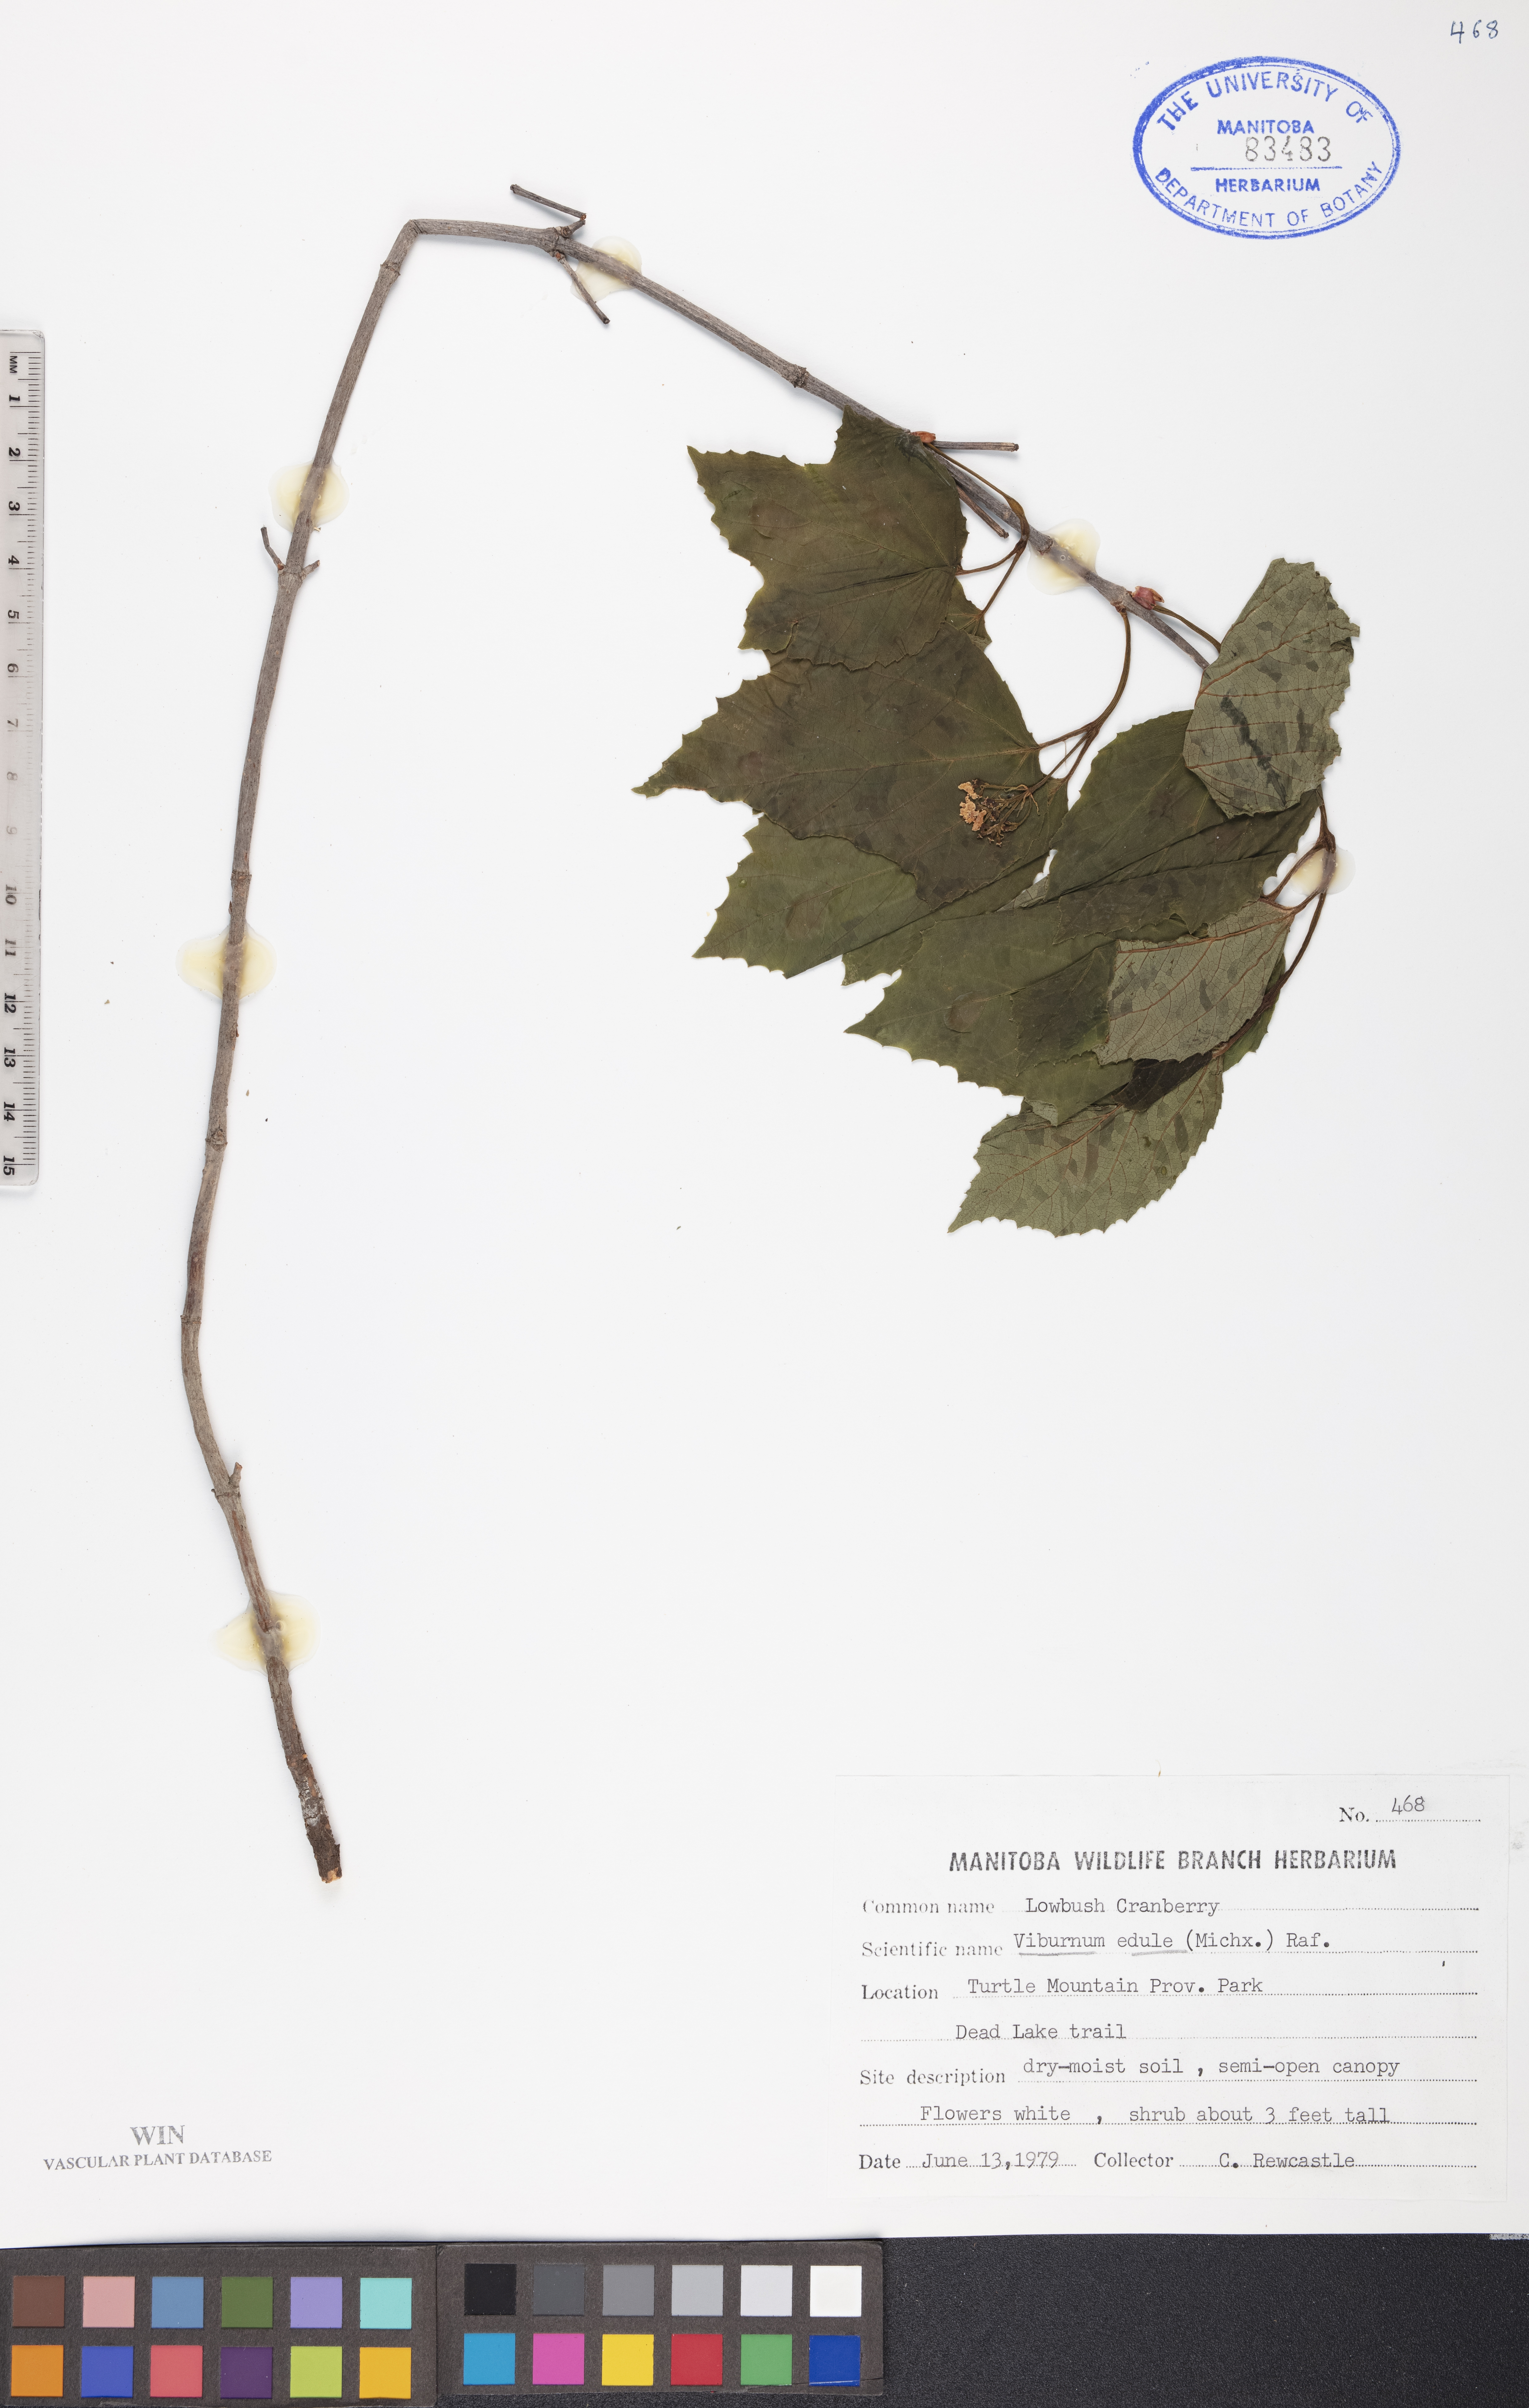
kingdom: Plantae
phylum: Tracheophyta
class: Magnoliopsida
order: Dipsacales
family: Viburnaceae
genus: Viburnum
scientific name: Viburnum edule
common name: Mooseberry
